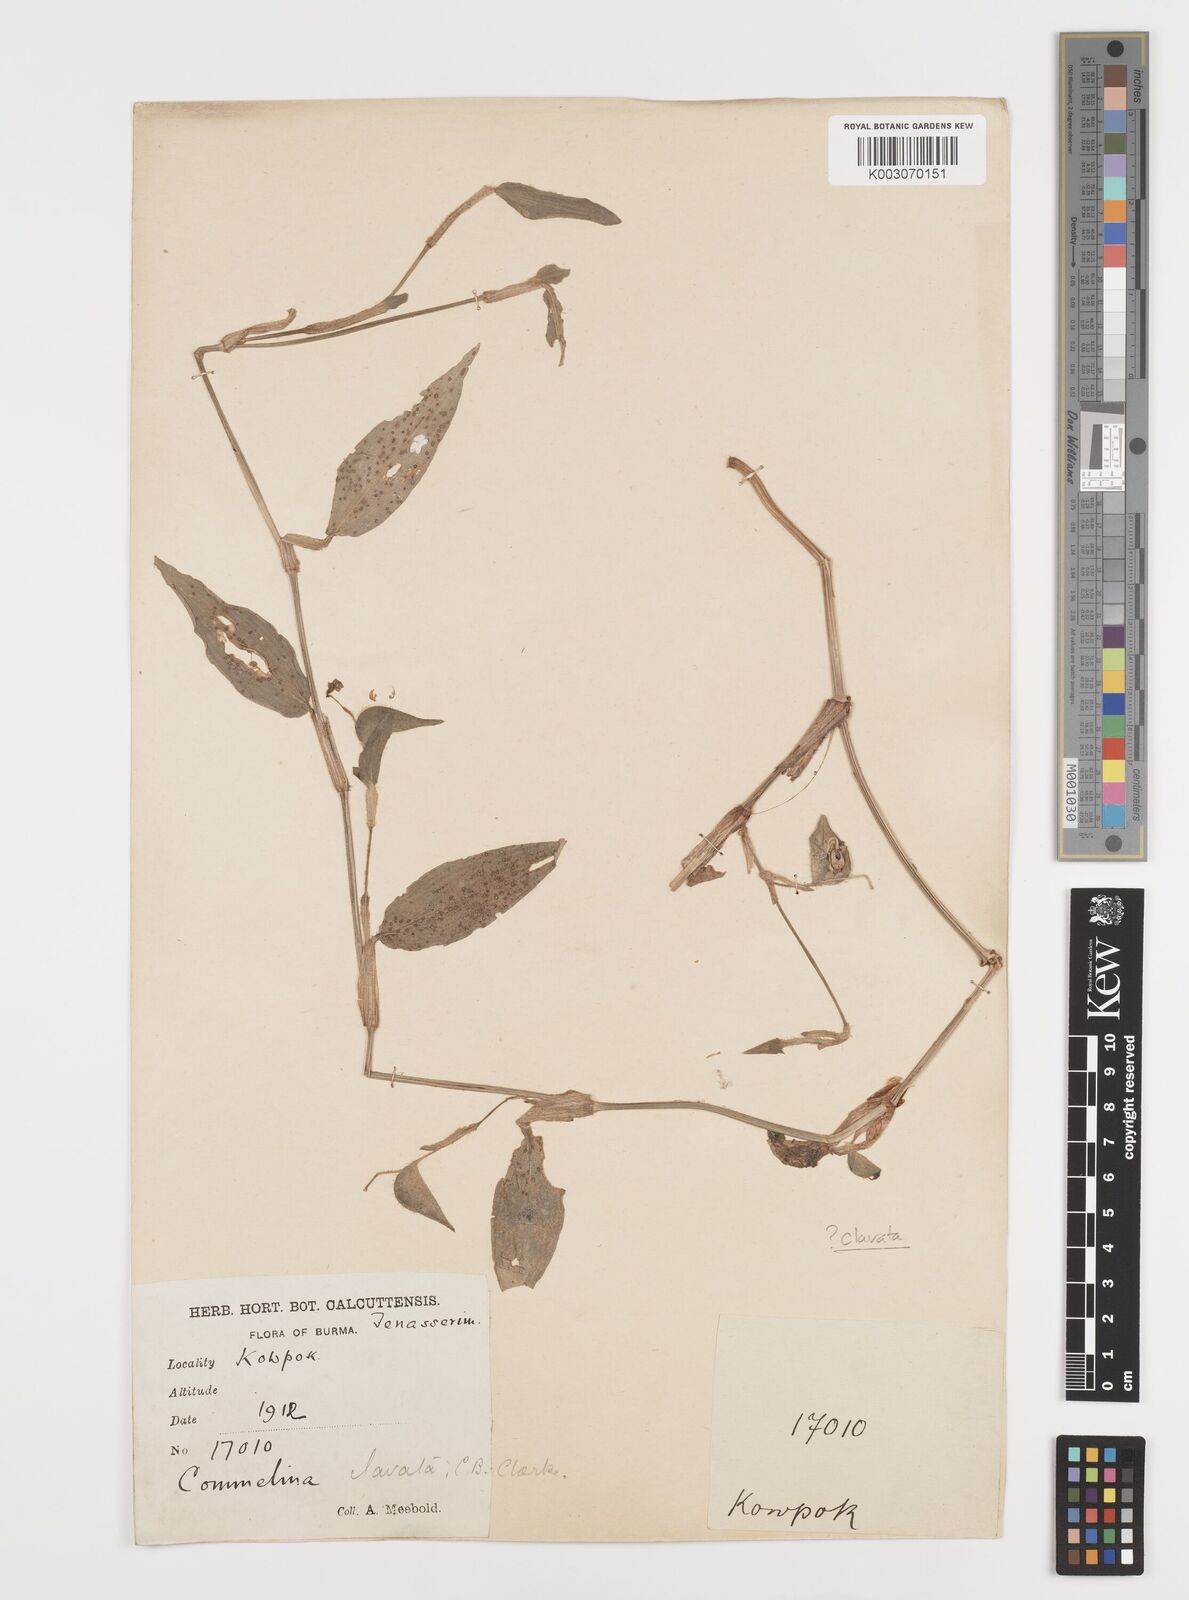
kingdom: Plantae
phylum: Tracheophyta
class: Liliopsida
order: Commelinales
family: Commelinaceae
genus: Commelina
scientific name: Commelina clavata
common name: Willow leaved dayflower
